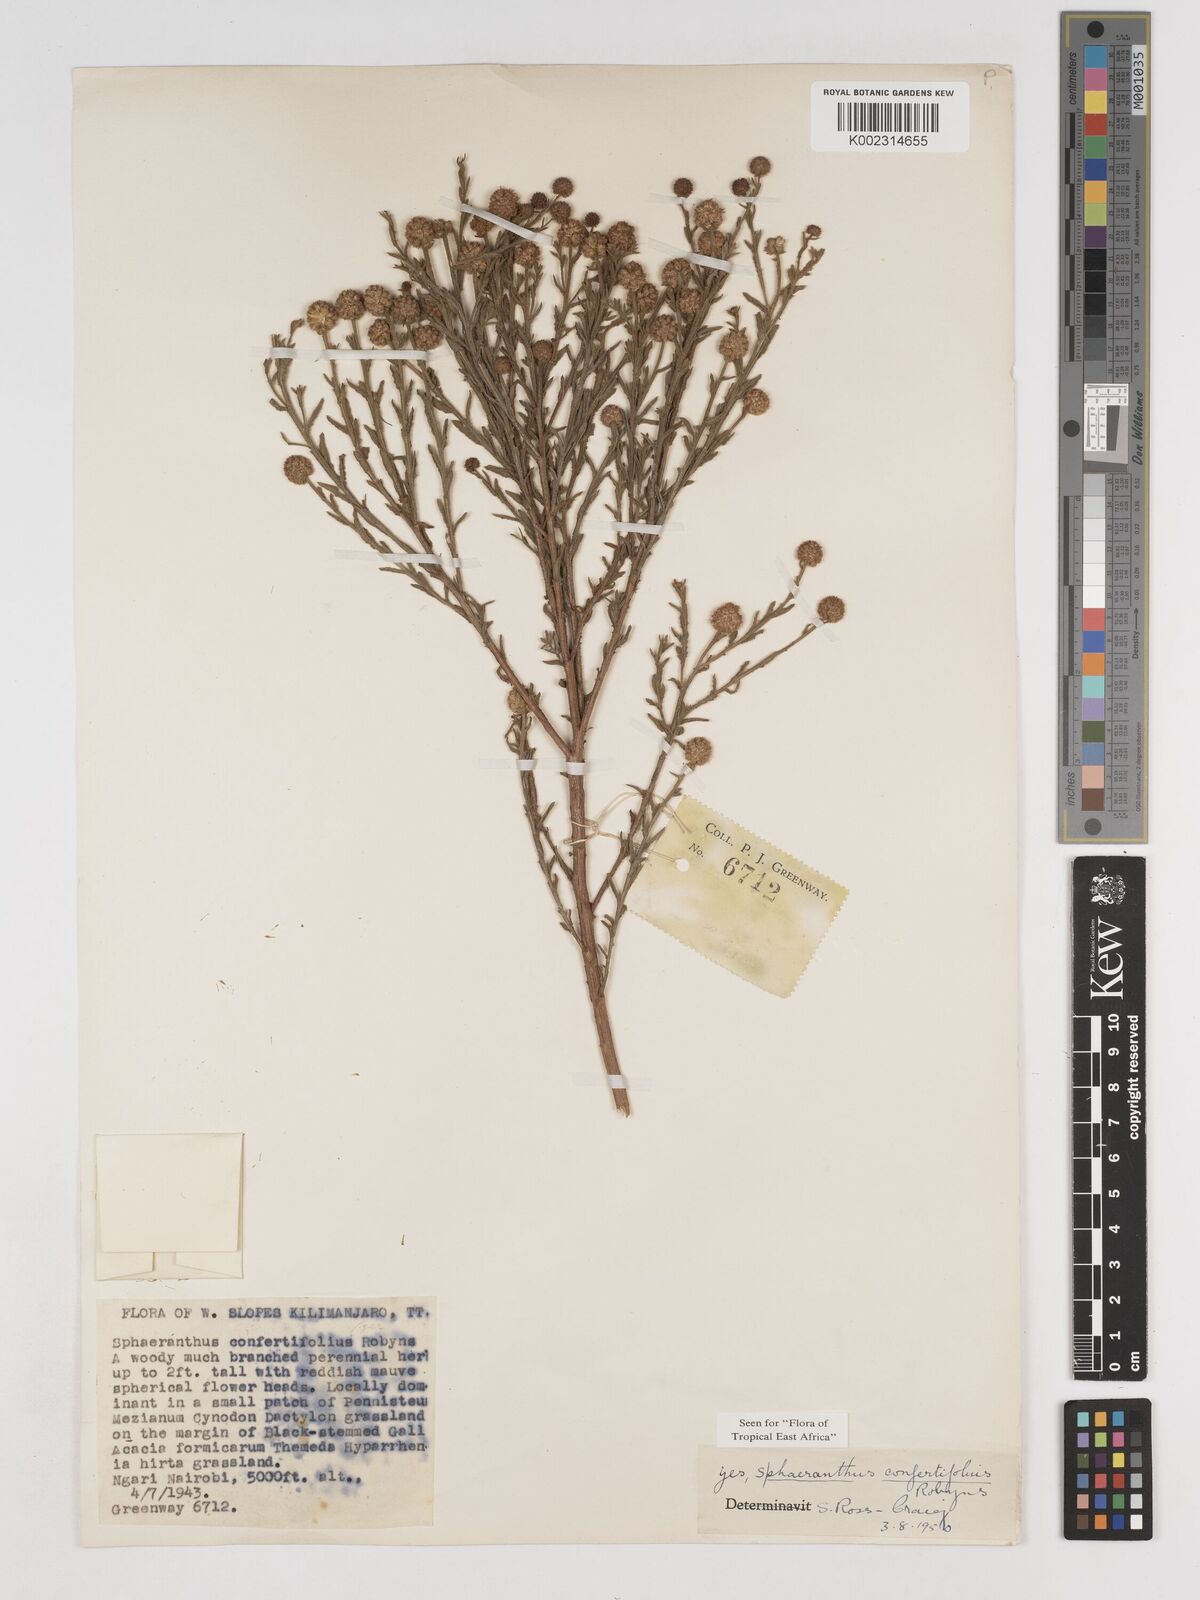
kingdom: Plantae
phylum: Tracheophyta
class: Magnoliopsida
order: Asterales
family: Asteraceae
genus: Sphaeranthus
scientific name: Sphaeranthus confertifolius
